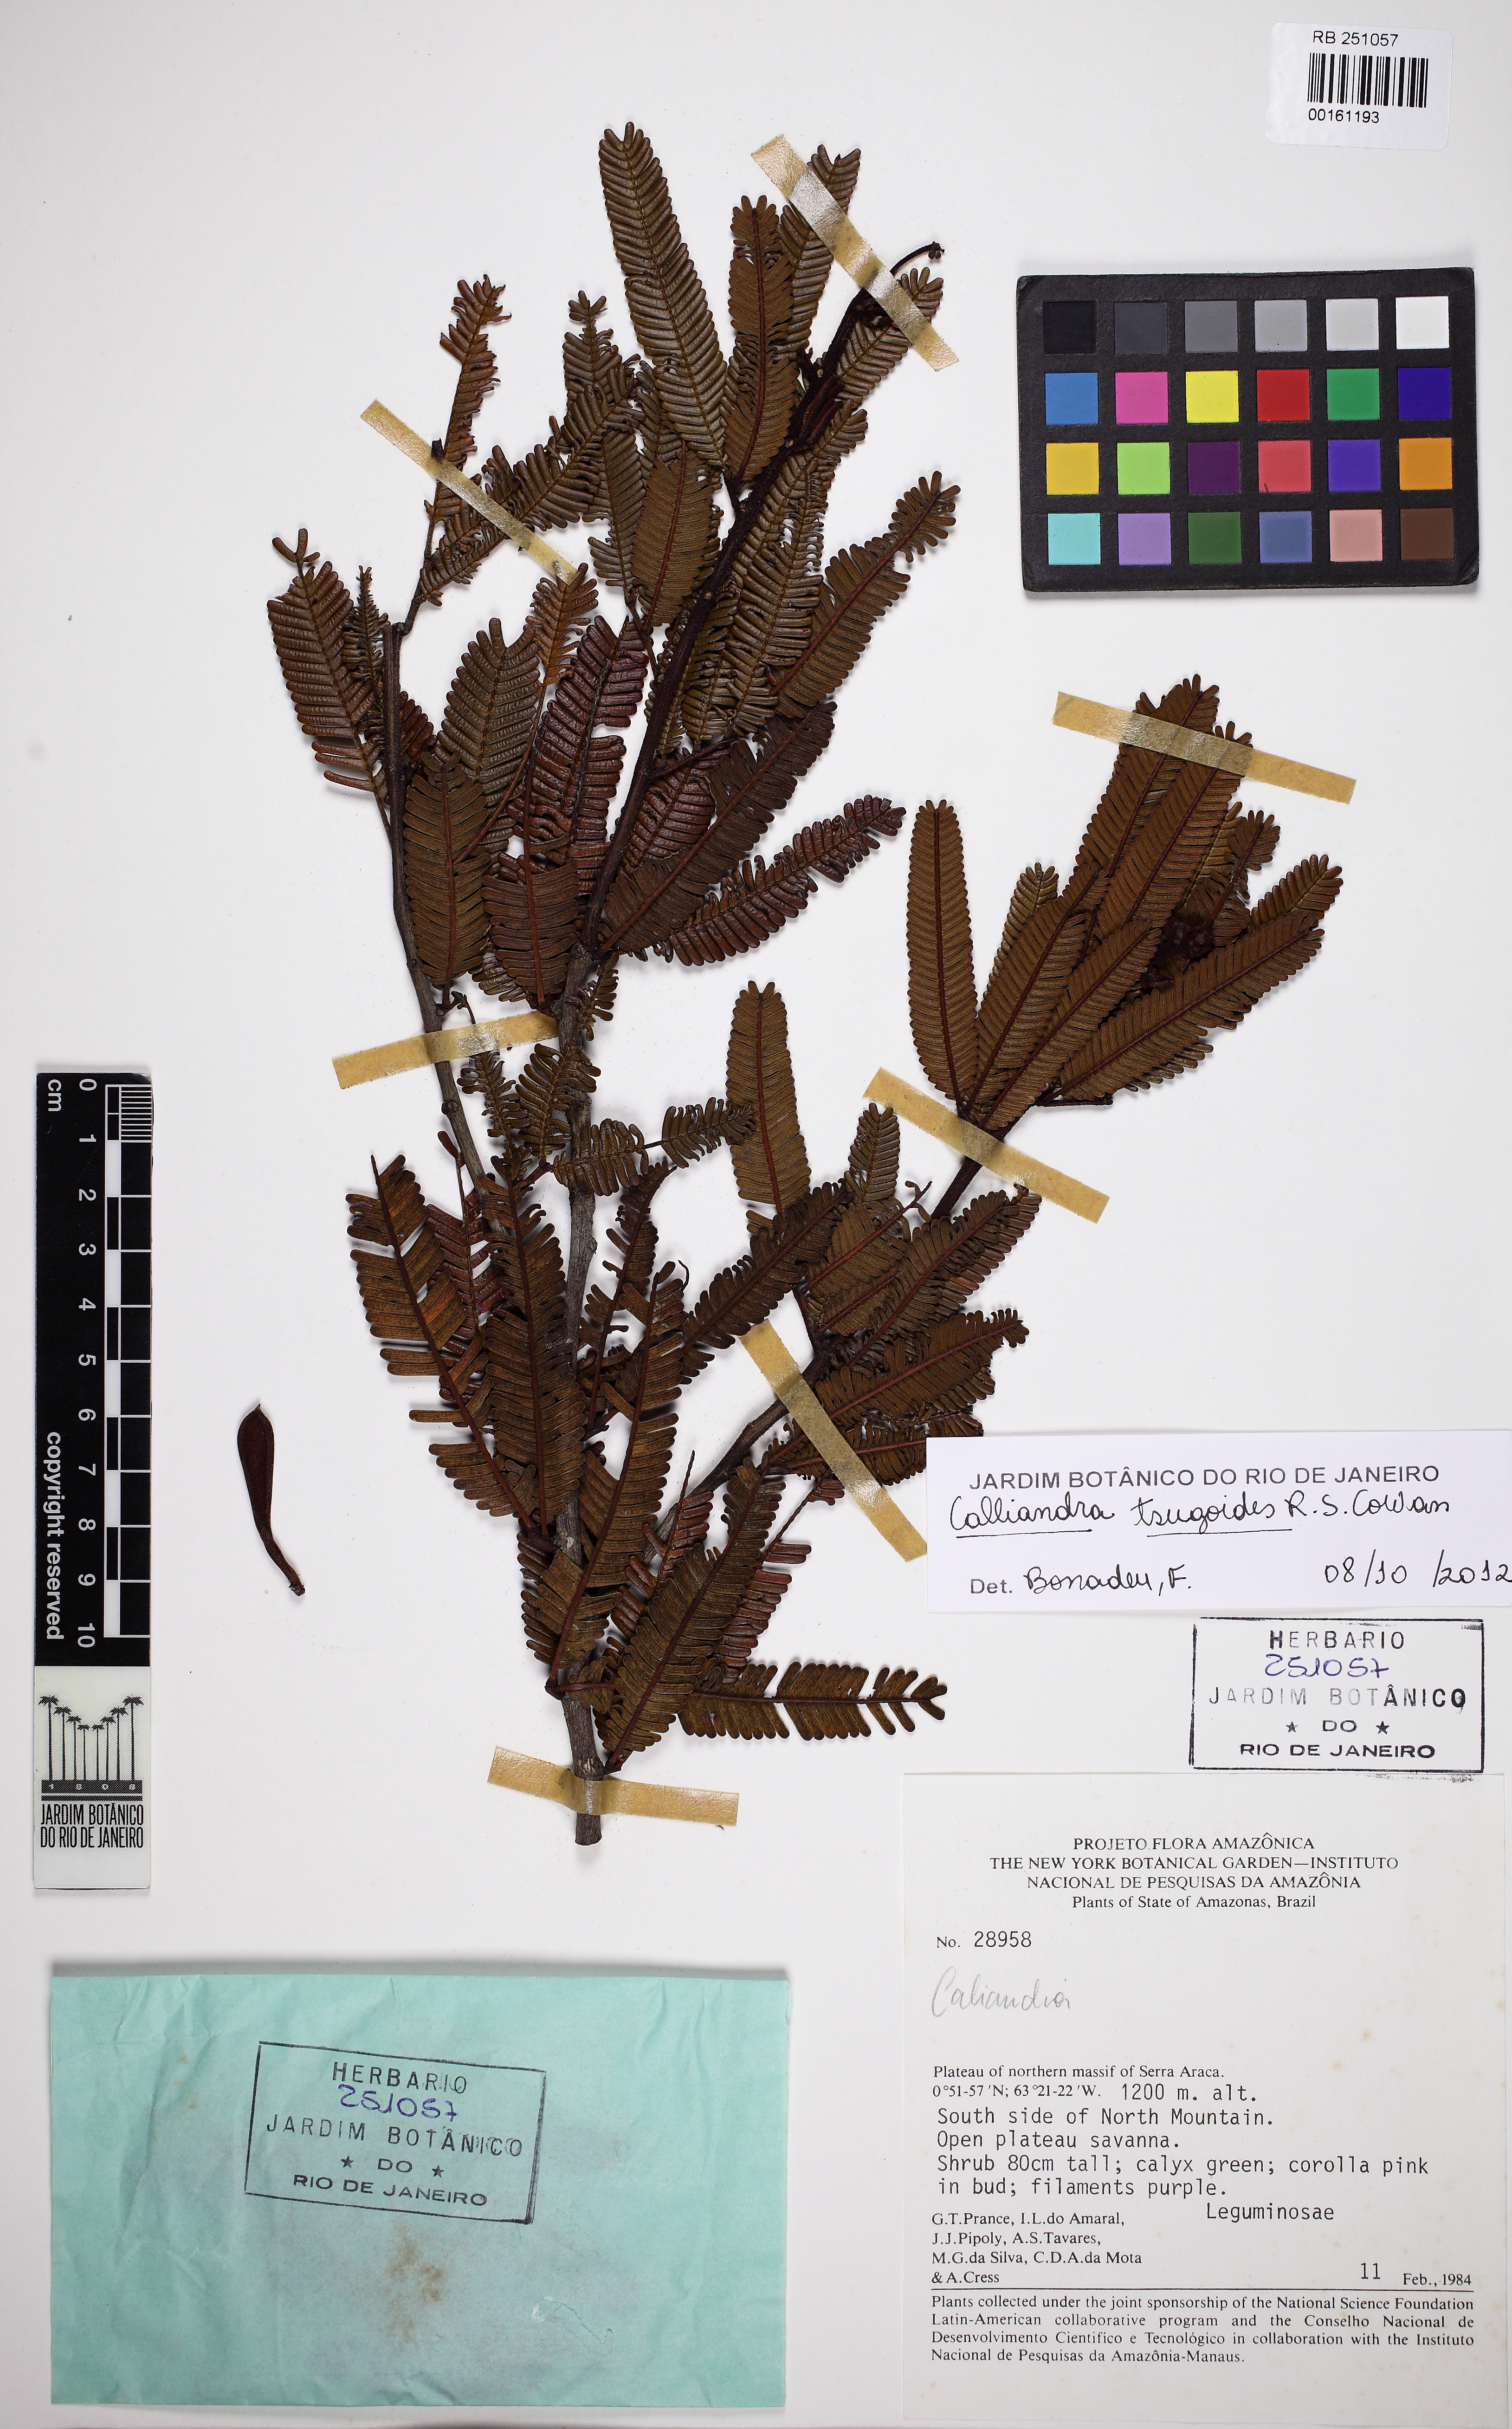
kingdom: Plantae
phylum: Tracheophyta
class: Magnoliopsida
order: Fabales
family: Fabaceae
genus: Calliandra
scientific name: Calliandra tsugoides
